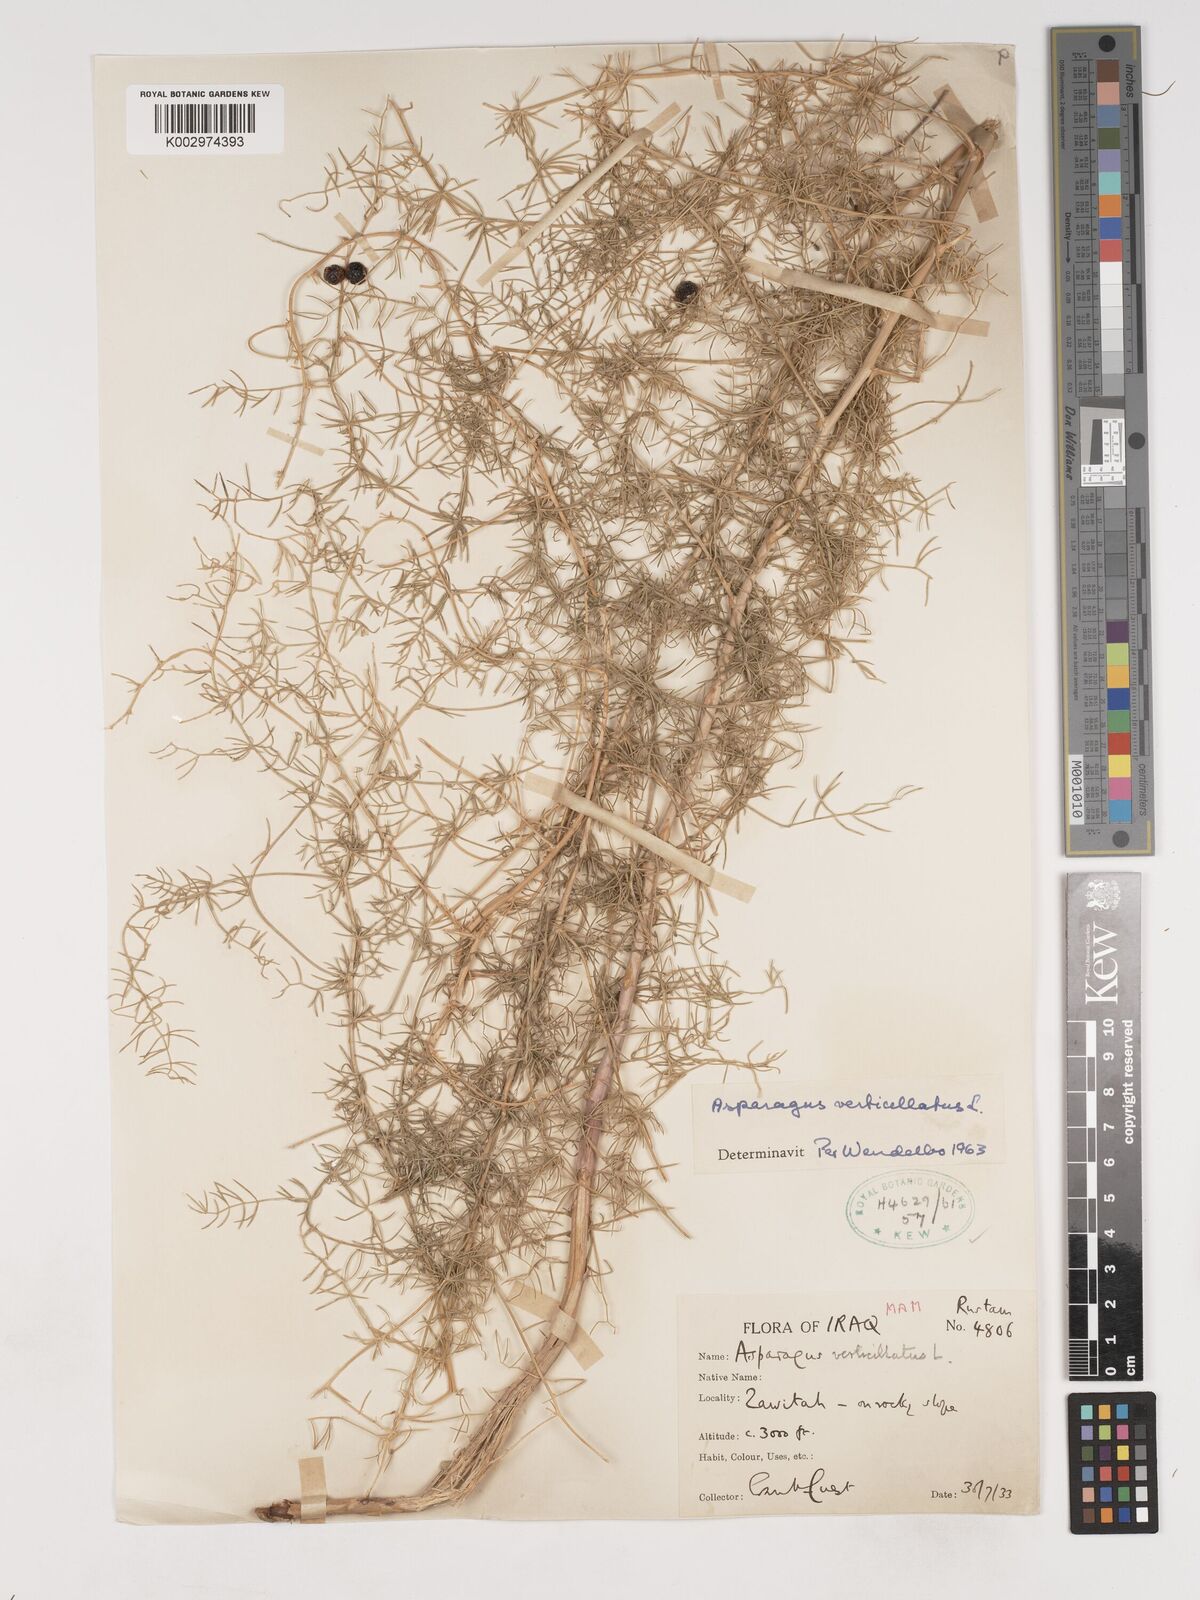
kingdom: Plantae
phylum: Tracheophyta
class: Liliopsida
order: Asparagales
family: Asparagaceae
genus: Asparagus
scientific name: Asparagus verticillatus
